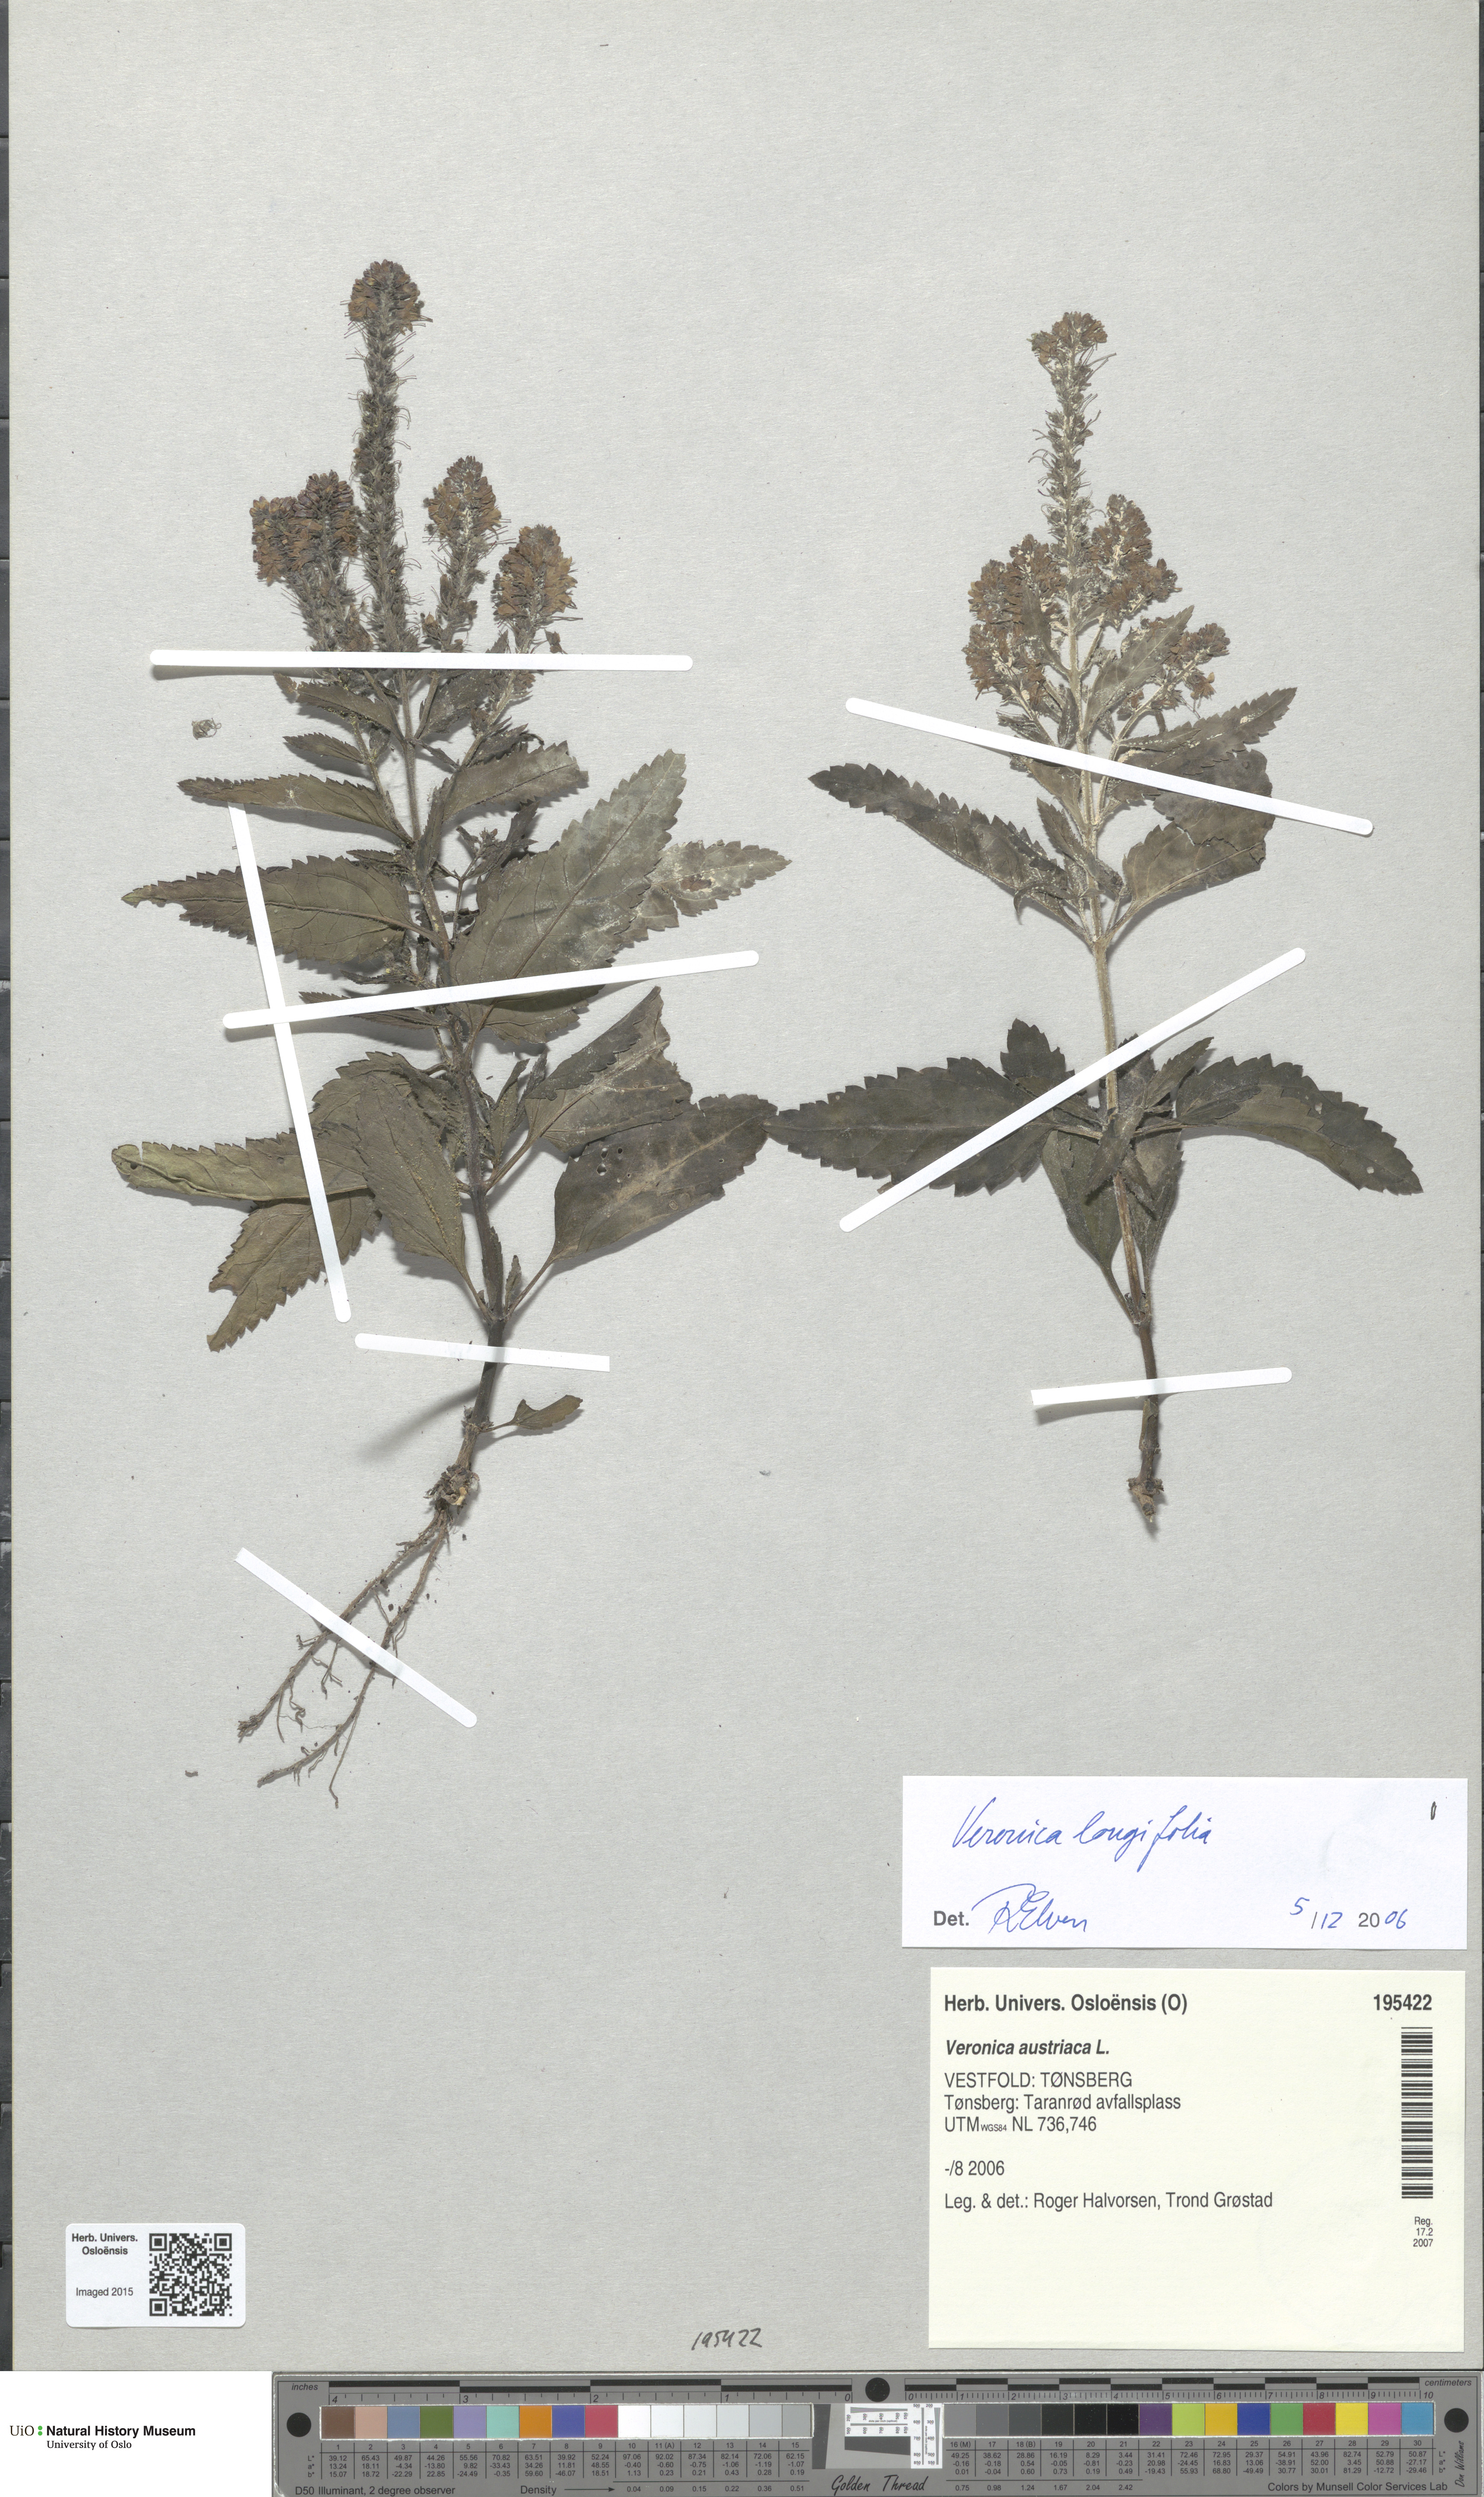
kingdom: Plantae
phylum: Tracheophyta
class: Magnoliopsida
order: Lamiales
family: Plantaginaceae
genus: Veronica
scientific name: Veronica longifolia
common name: Garden speedwell
